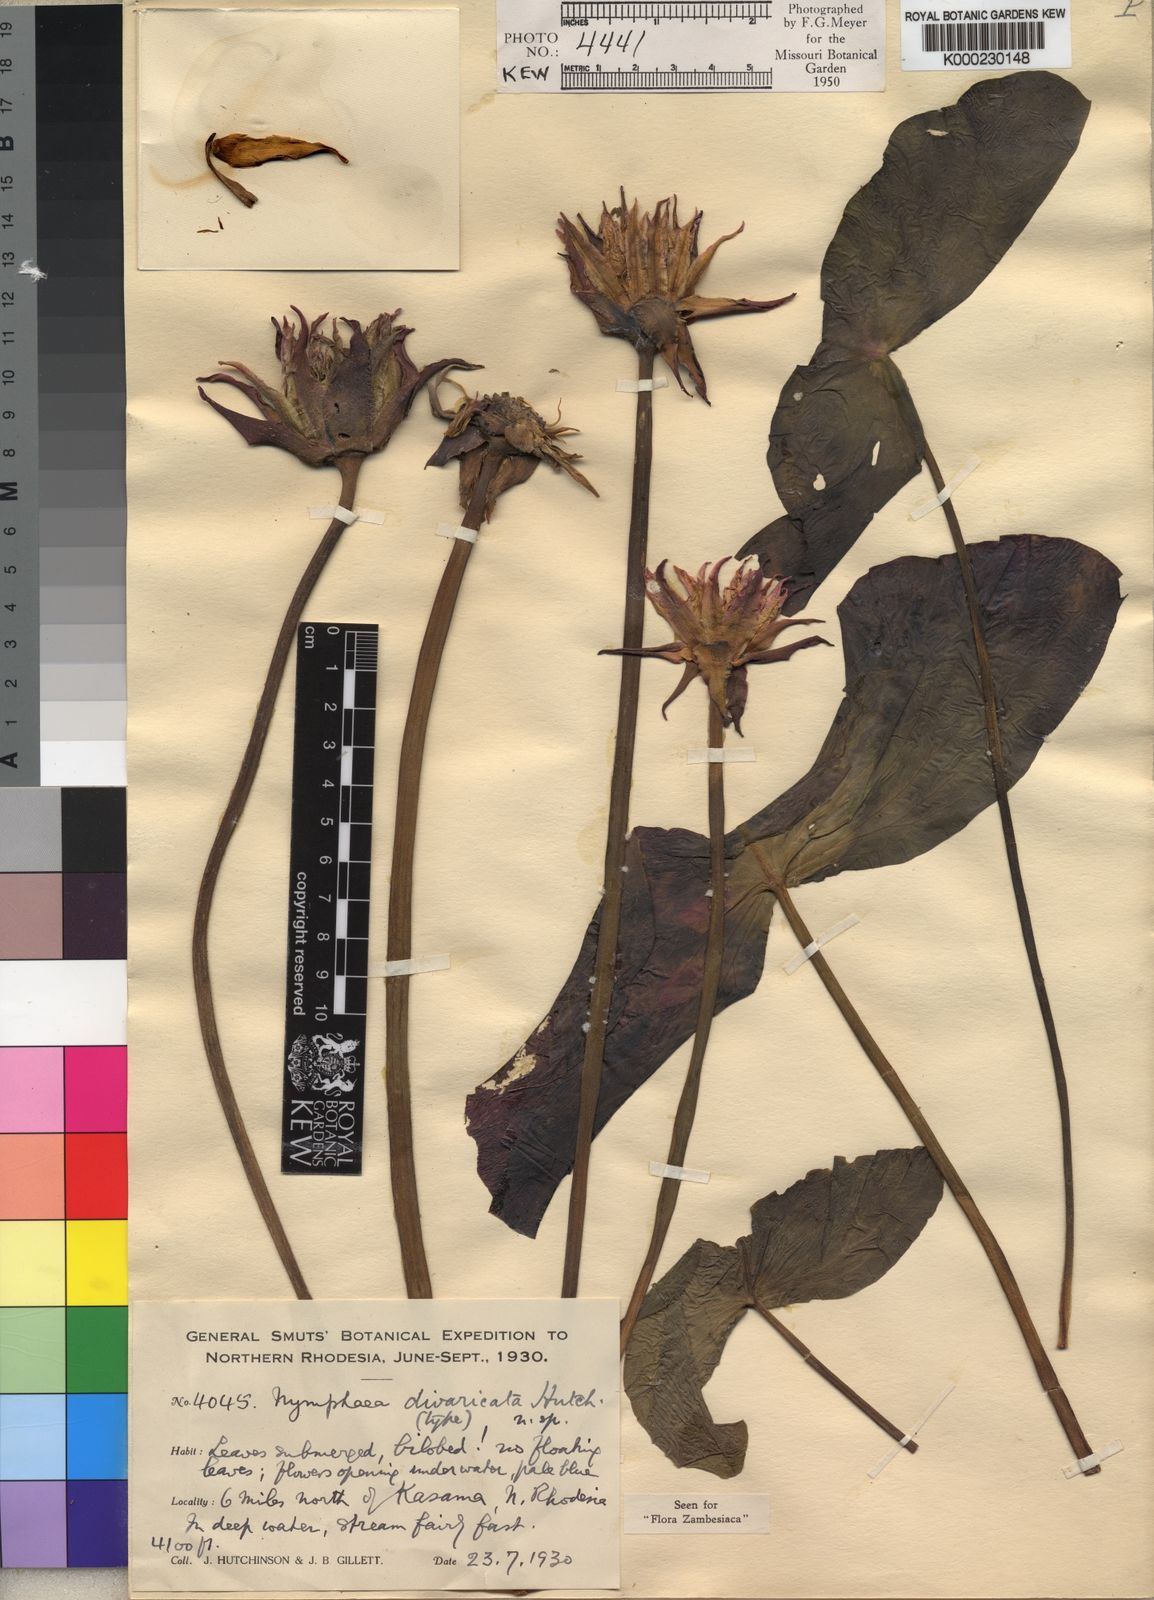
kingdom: Plantae
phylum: Tracheophyta
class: Magnoliopsida
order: Nymphaeales
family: Nymphaeaceae
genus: Nymphaea
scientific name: Nymphaea divaricata
